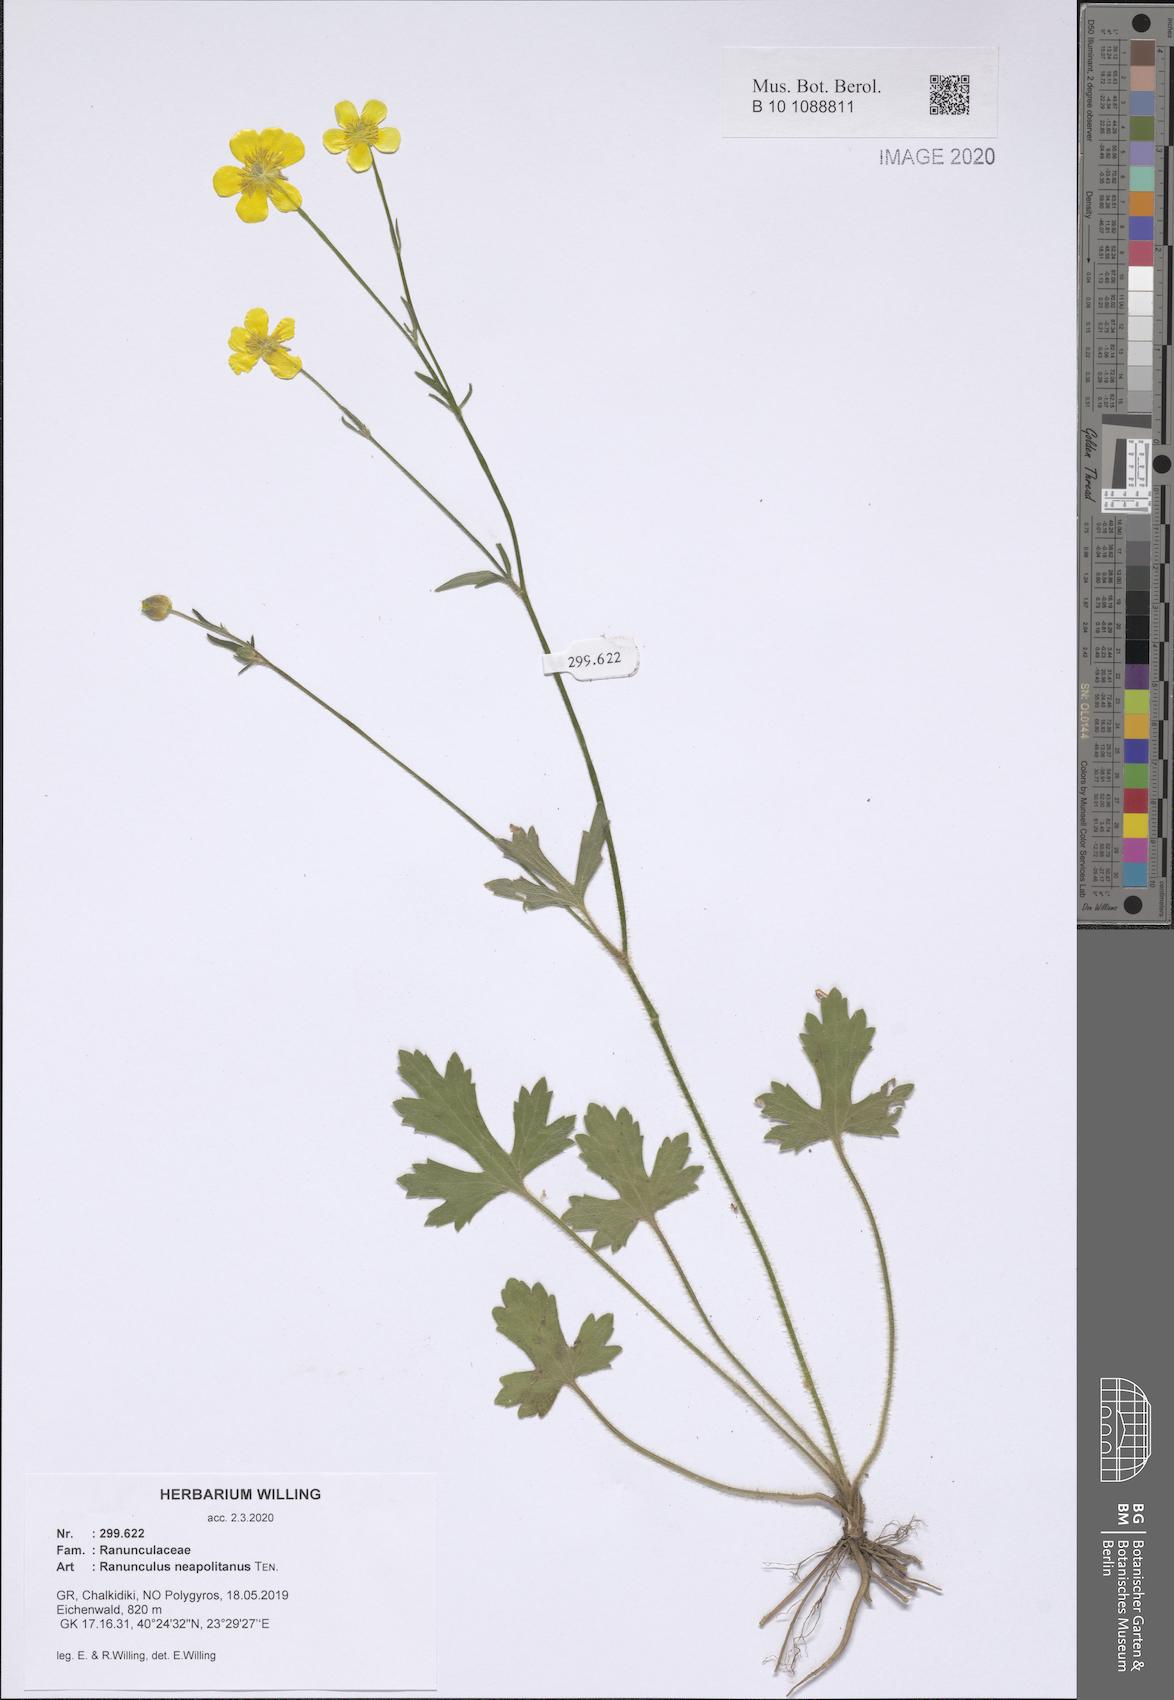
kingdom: Plantae
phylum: Tracheophyta
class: Magnoliopsida
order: Ranunculales
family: Ranunculaceae
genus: Ranunculus
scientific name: Ranunculus neapolitanus
